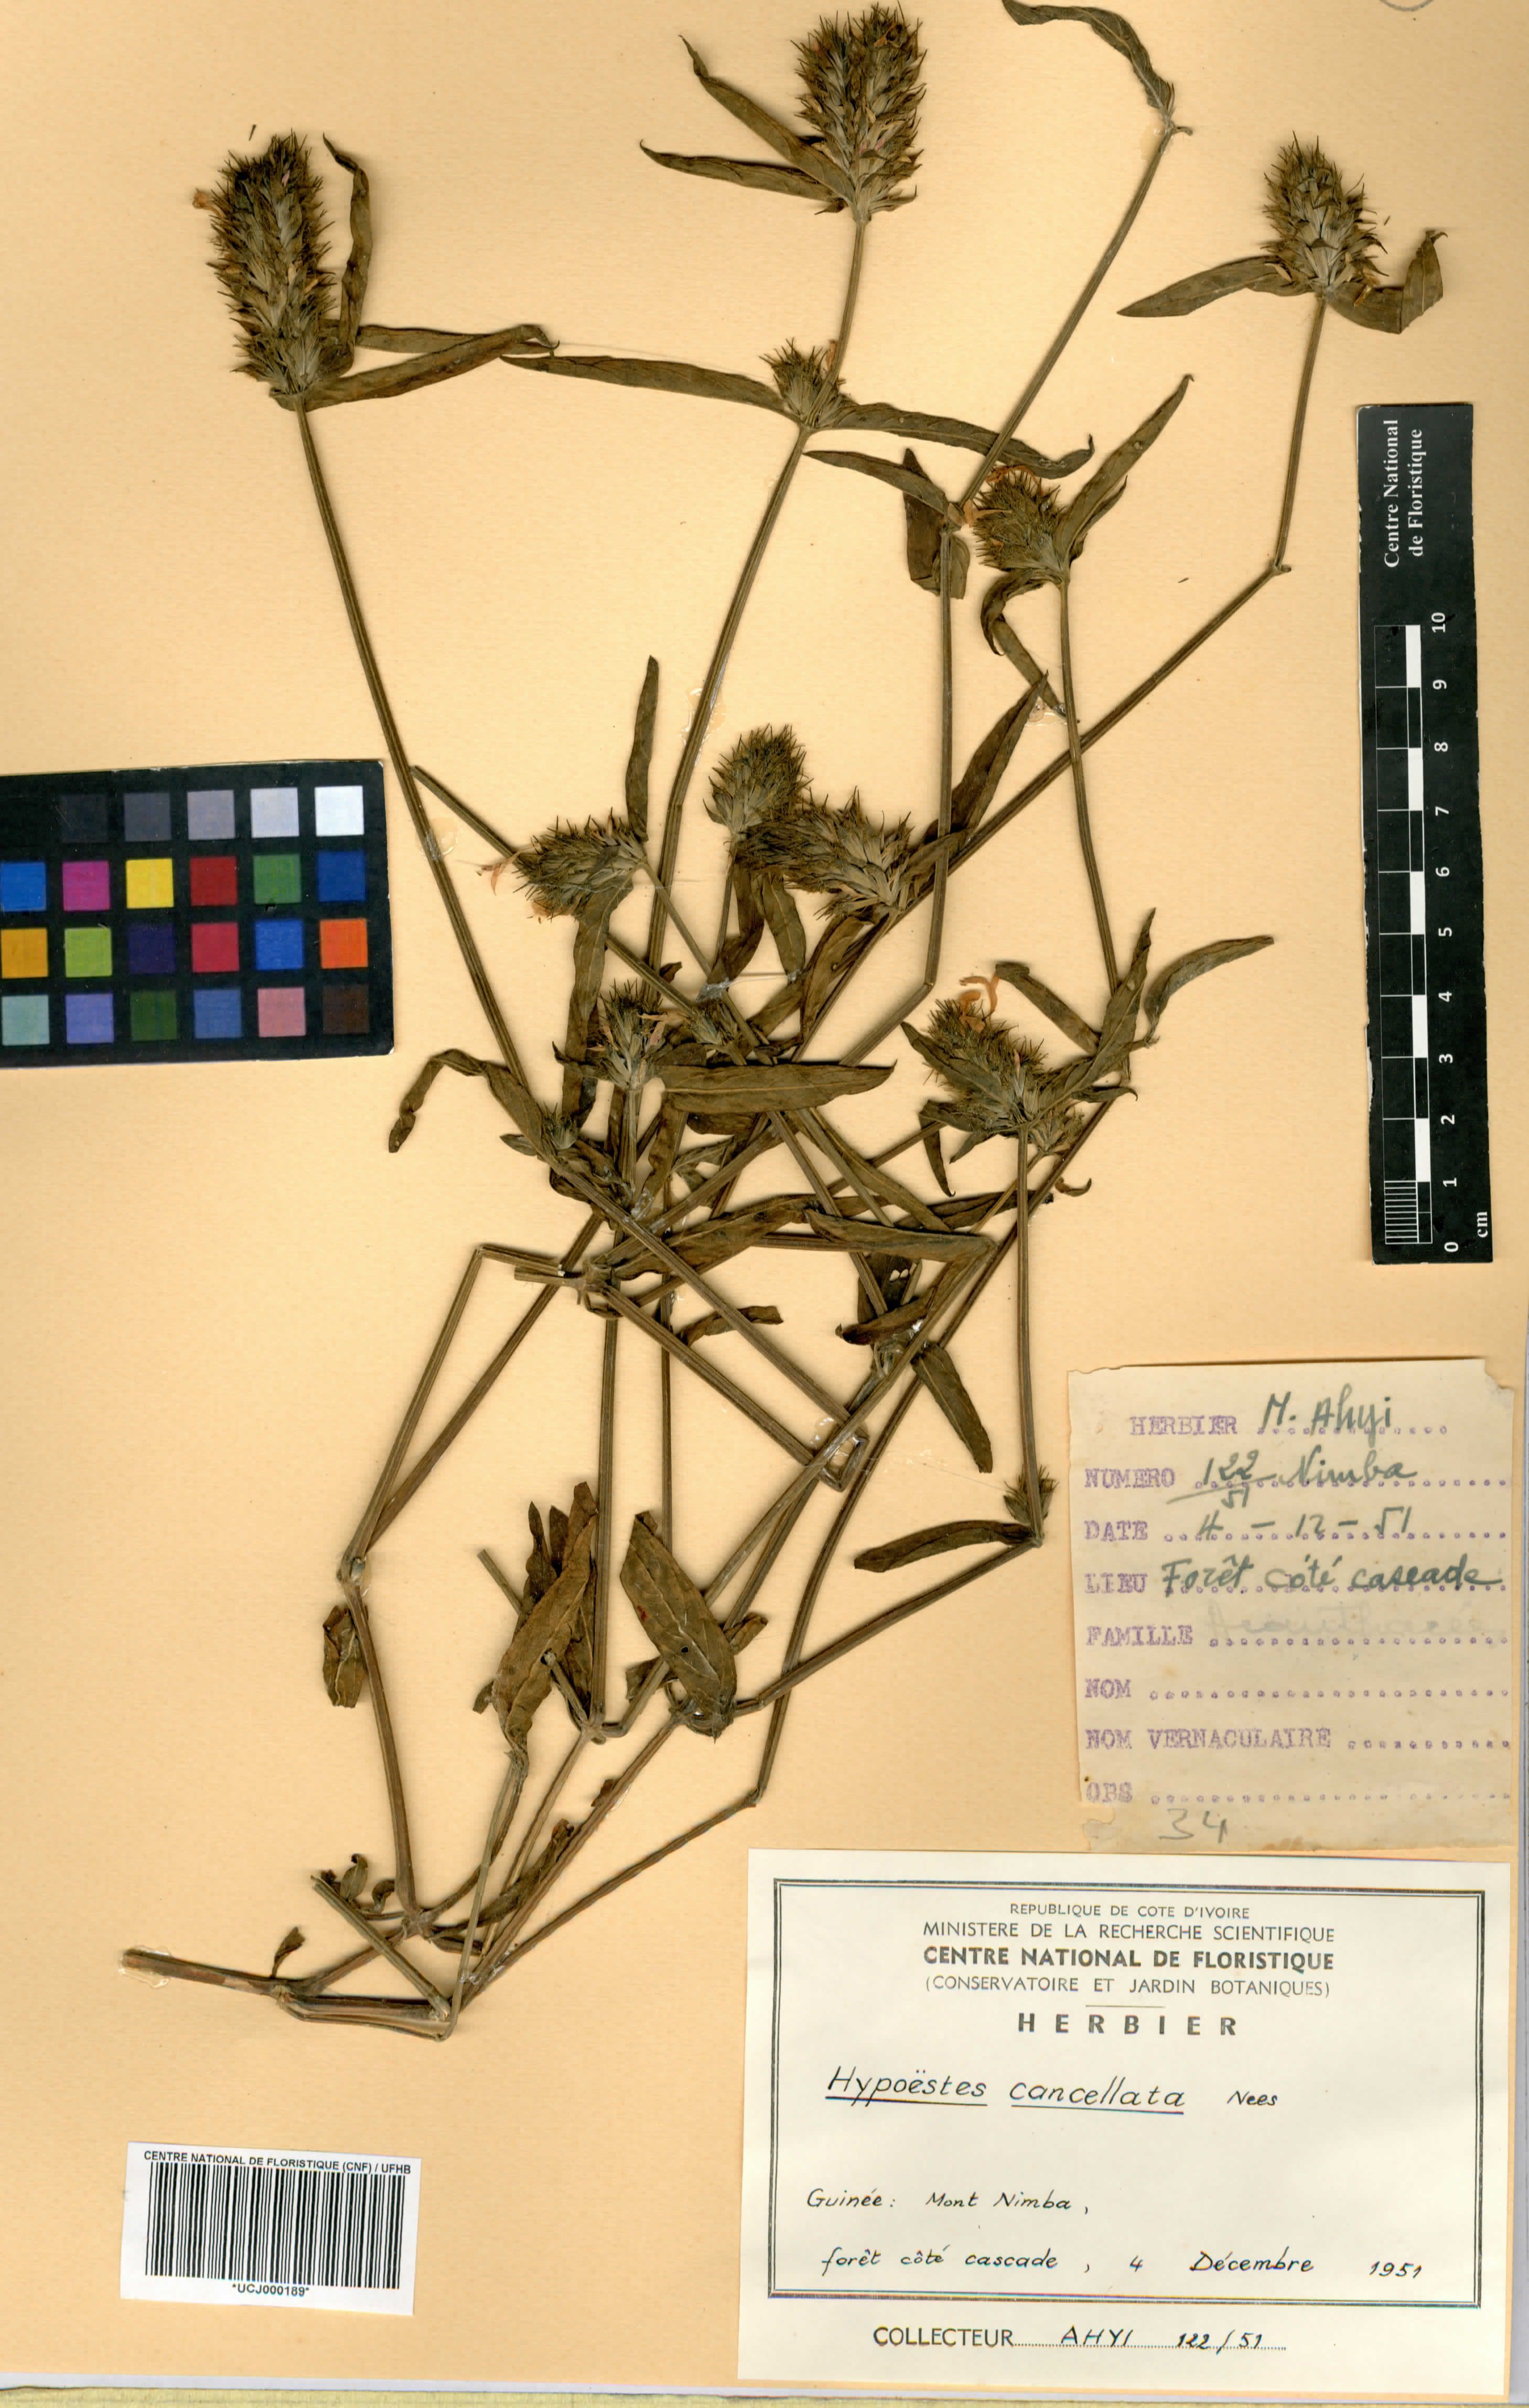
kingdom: Plantae
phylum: Tracheophyta
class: Magnoliopsida
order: Lamiales
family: Acanthaceae
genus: Hypoestes
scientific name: Hypoestes cancellata
